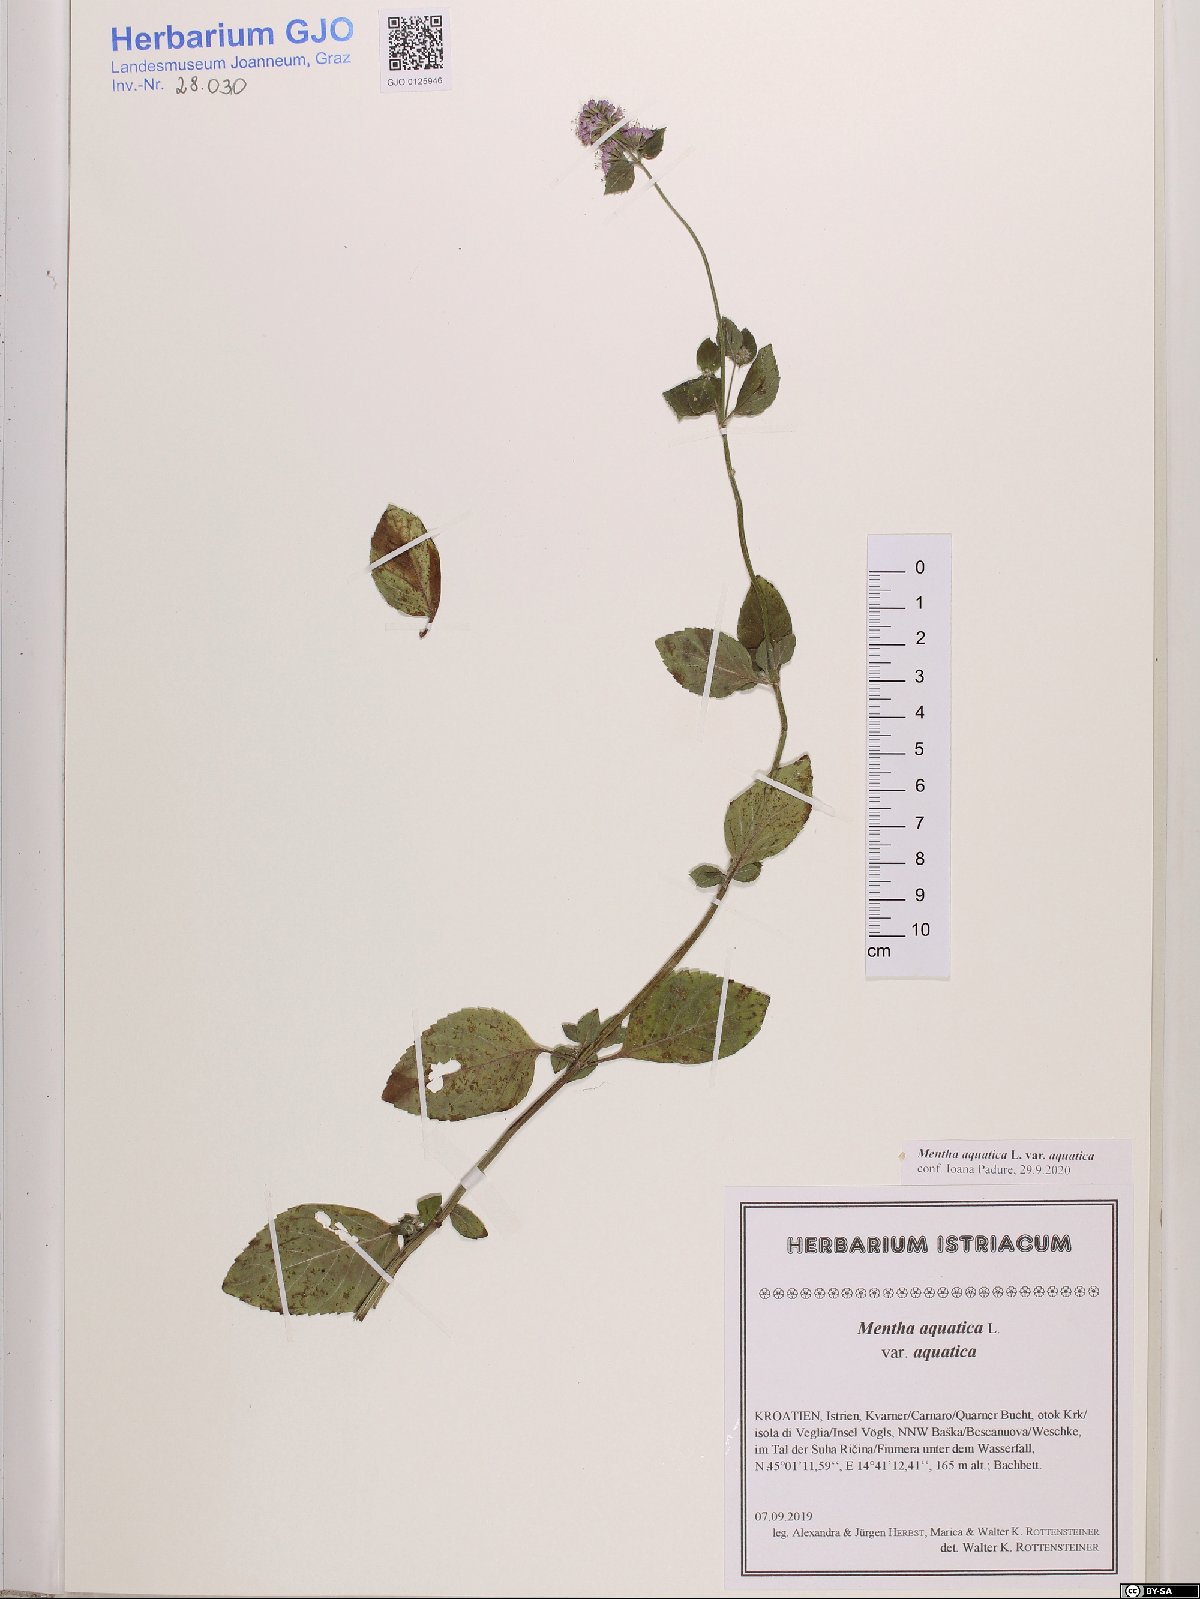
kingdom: Plantae
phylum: Tracheophyta
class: Magnoliopsida
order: Lamiales
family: Lamiaceae
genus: Mentha
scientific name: Mentha aquatica
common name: Water mint
